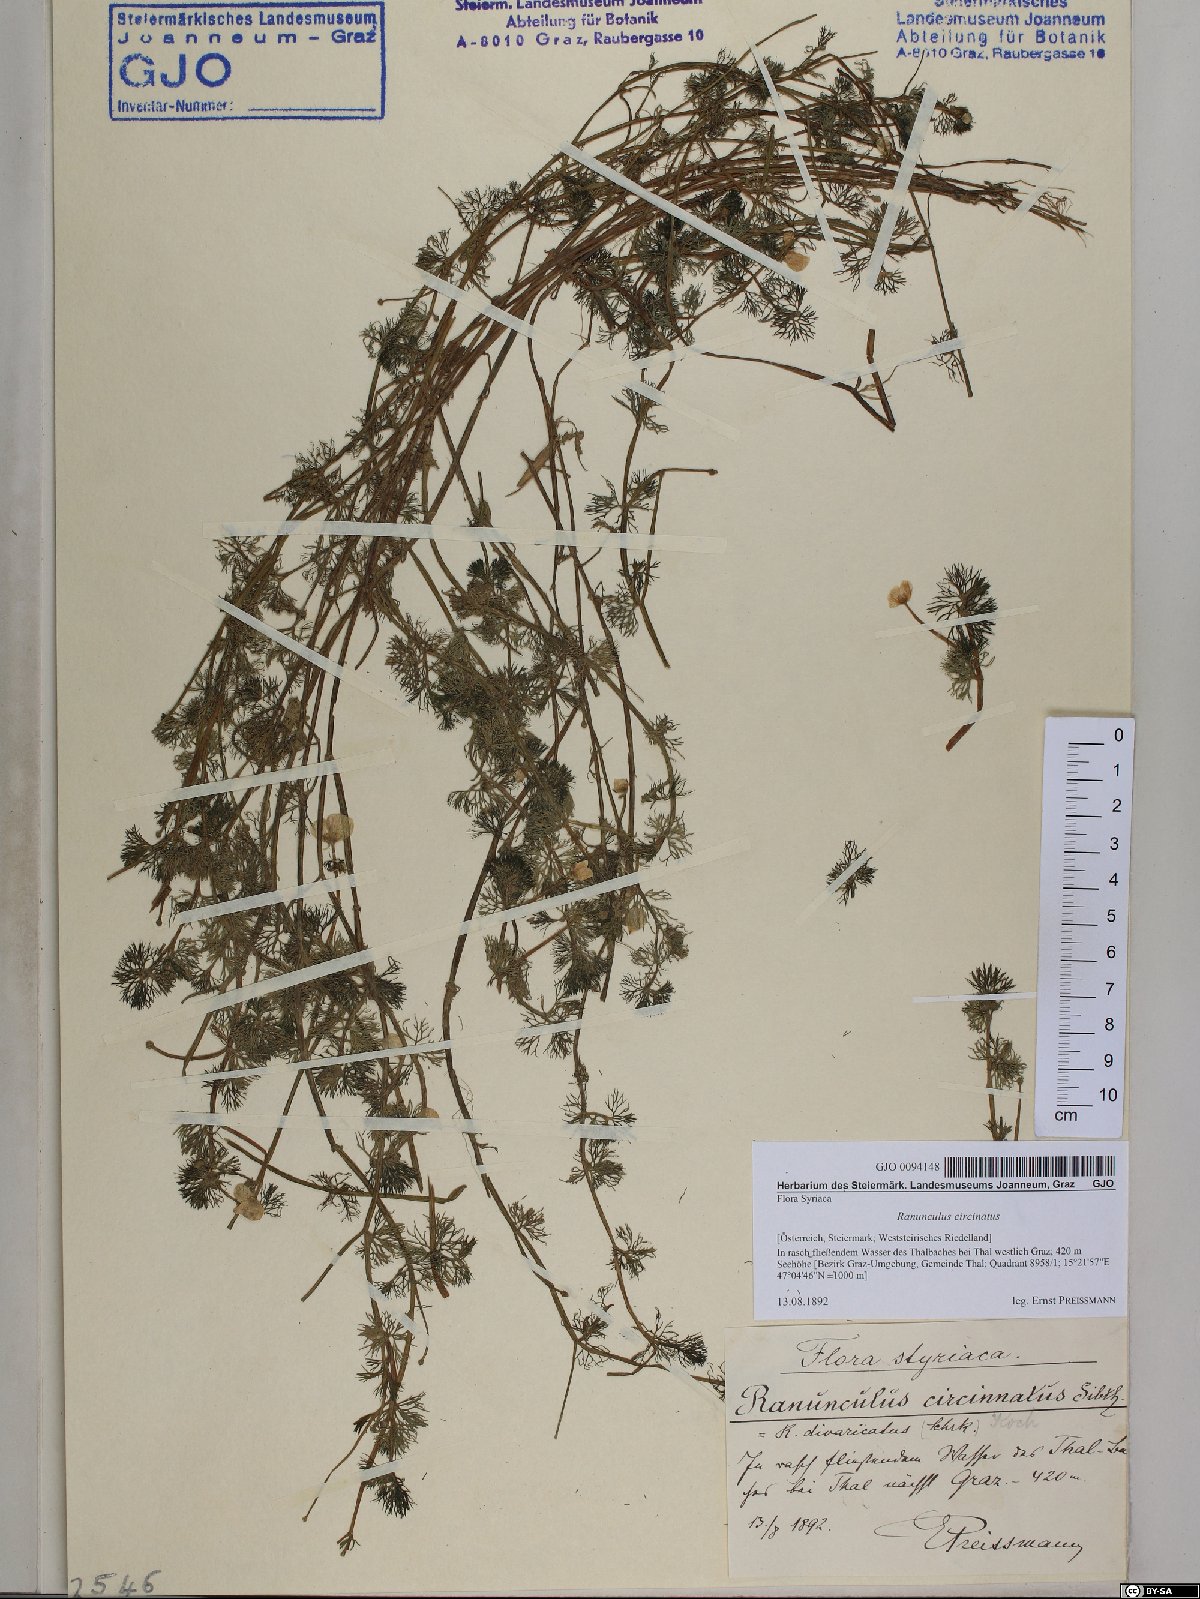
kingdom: Plantae
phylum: Tracheophyta
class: Magnoliopsida
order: Ranunculales
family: Ranunculaceae
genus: Ranunculus
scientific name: Ranunculus circinatus
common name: Fan-leaved water-crowfoot
